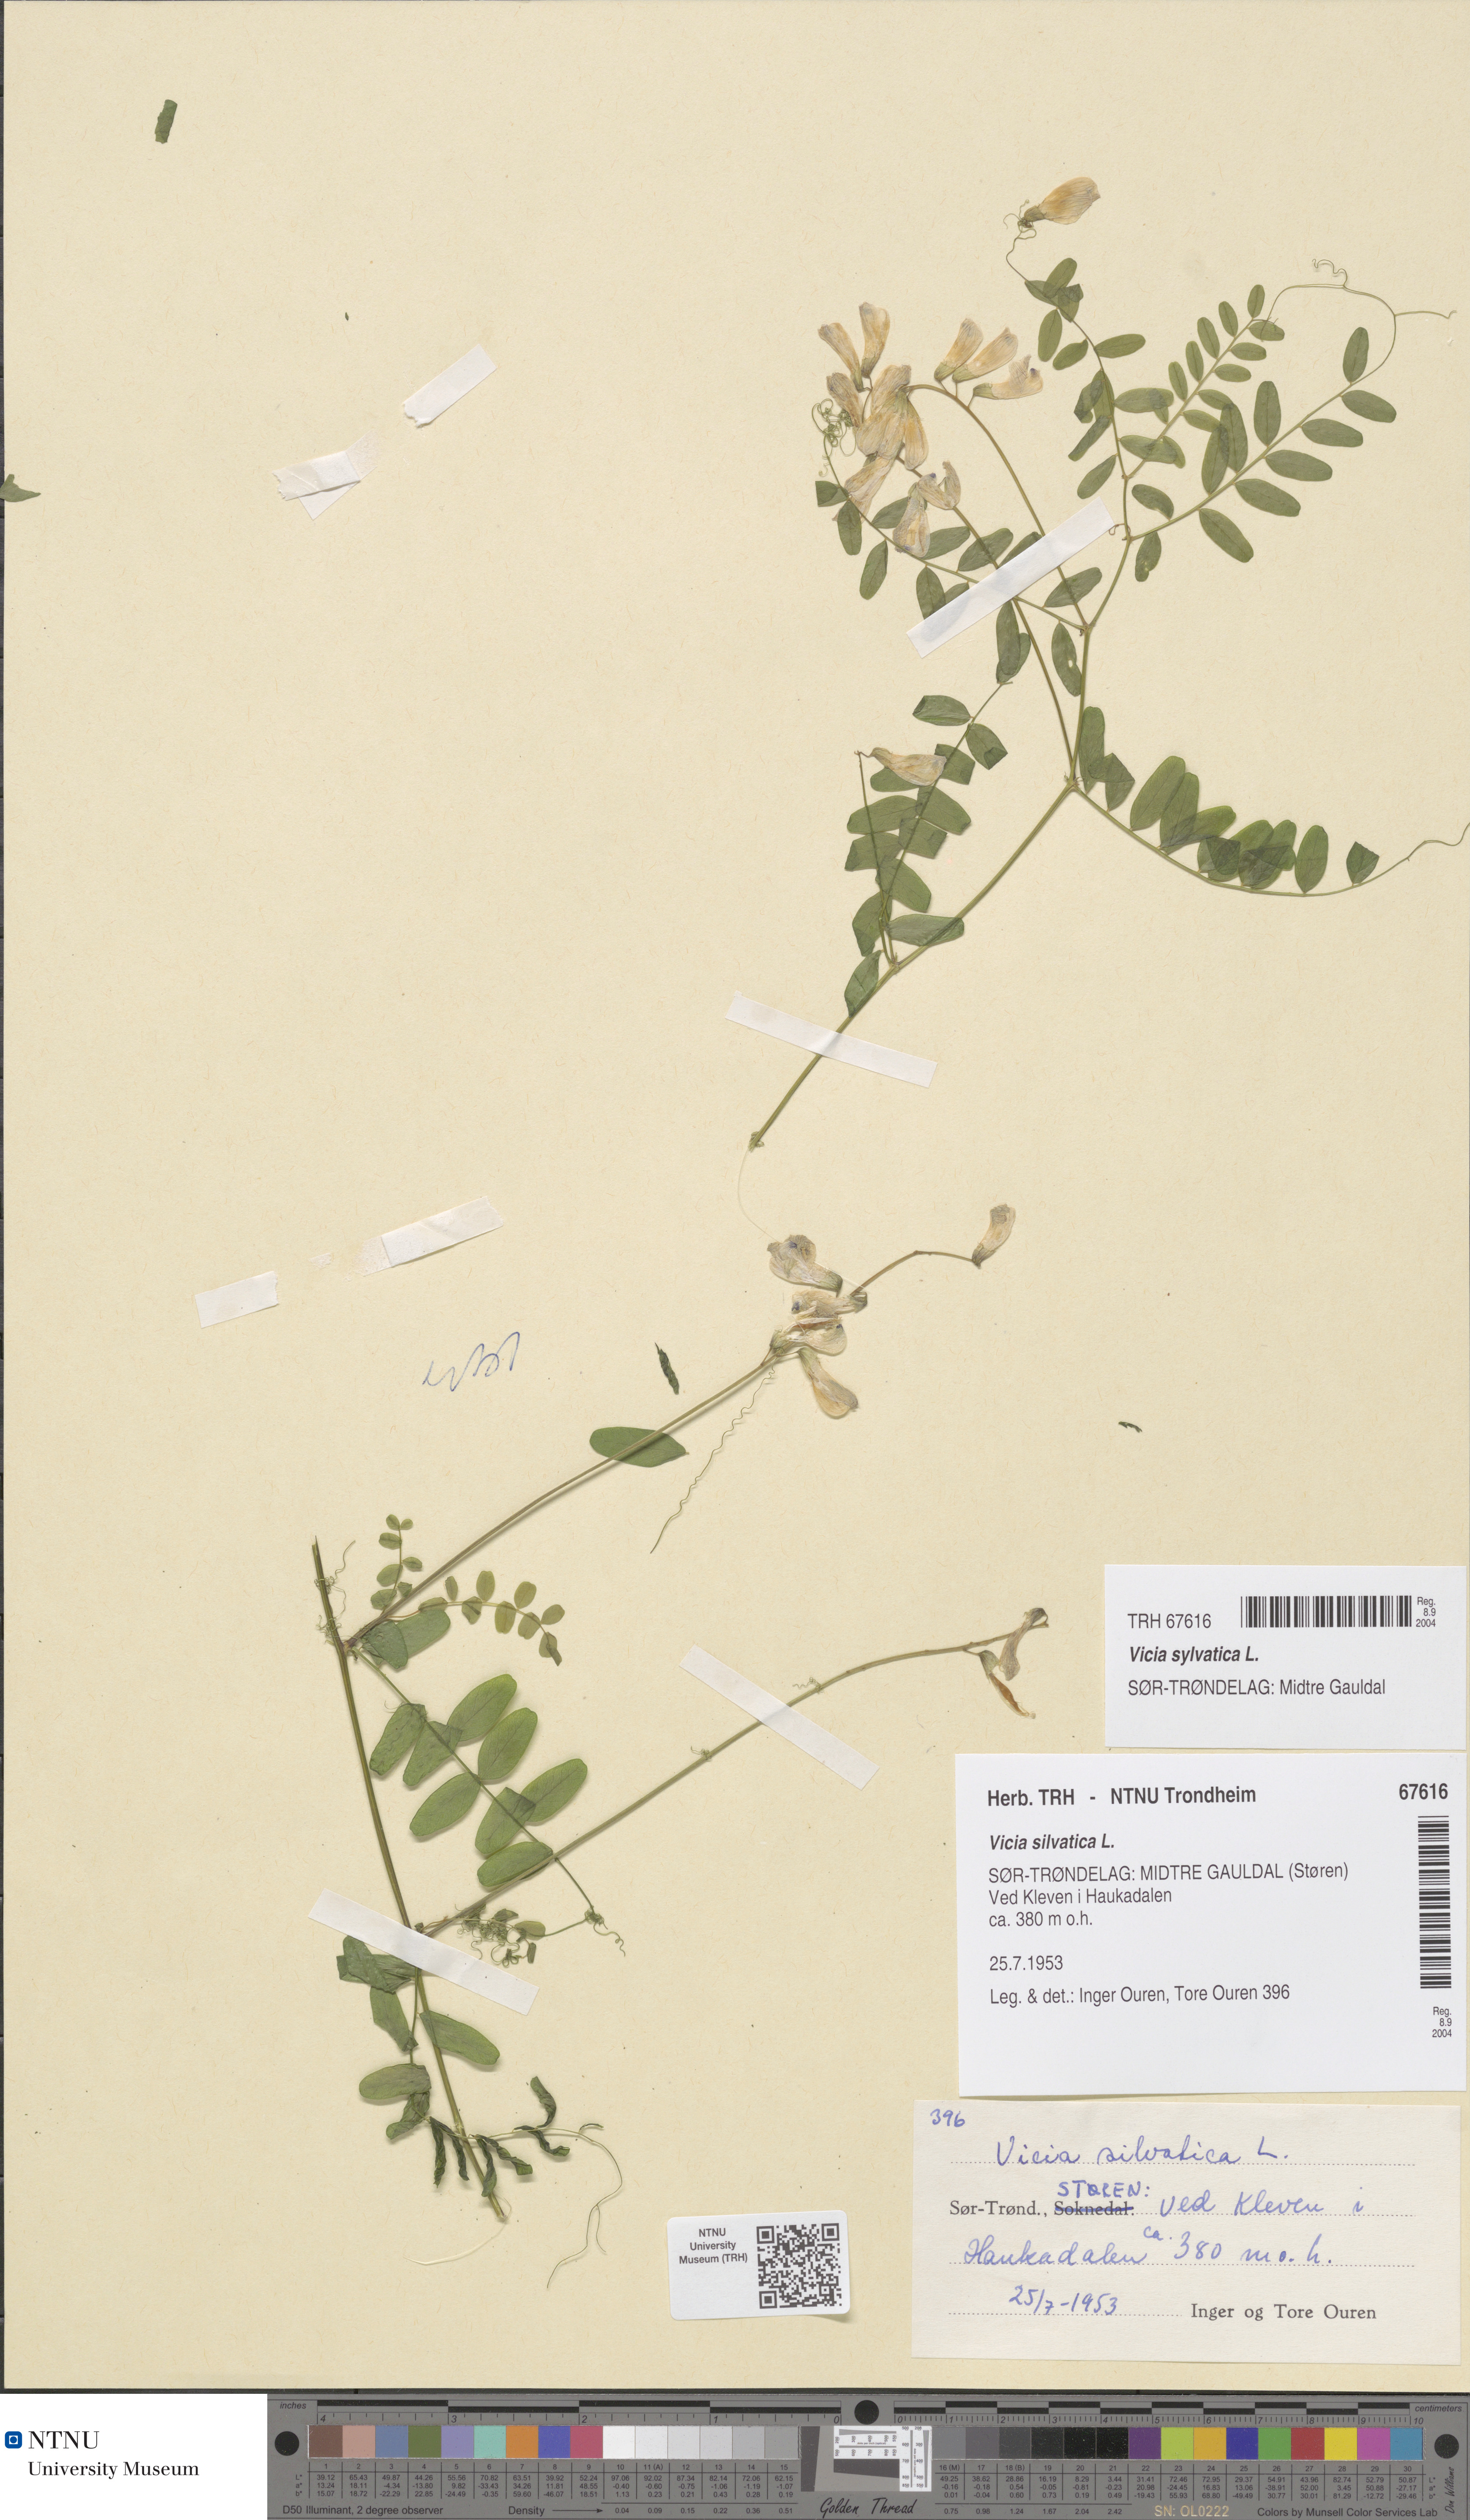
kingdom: Plantae
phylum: Tracheophyta
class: Magnoliopsida
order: Fabales
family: Fabaceae
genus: Vicia
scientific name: Vicia sylvatica
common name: Wood vetch
